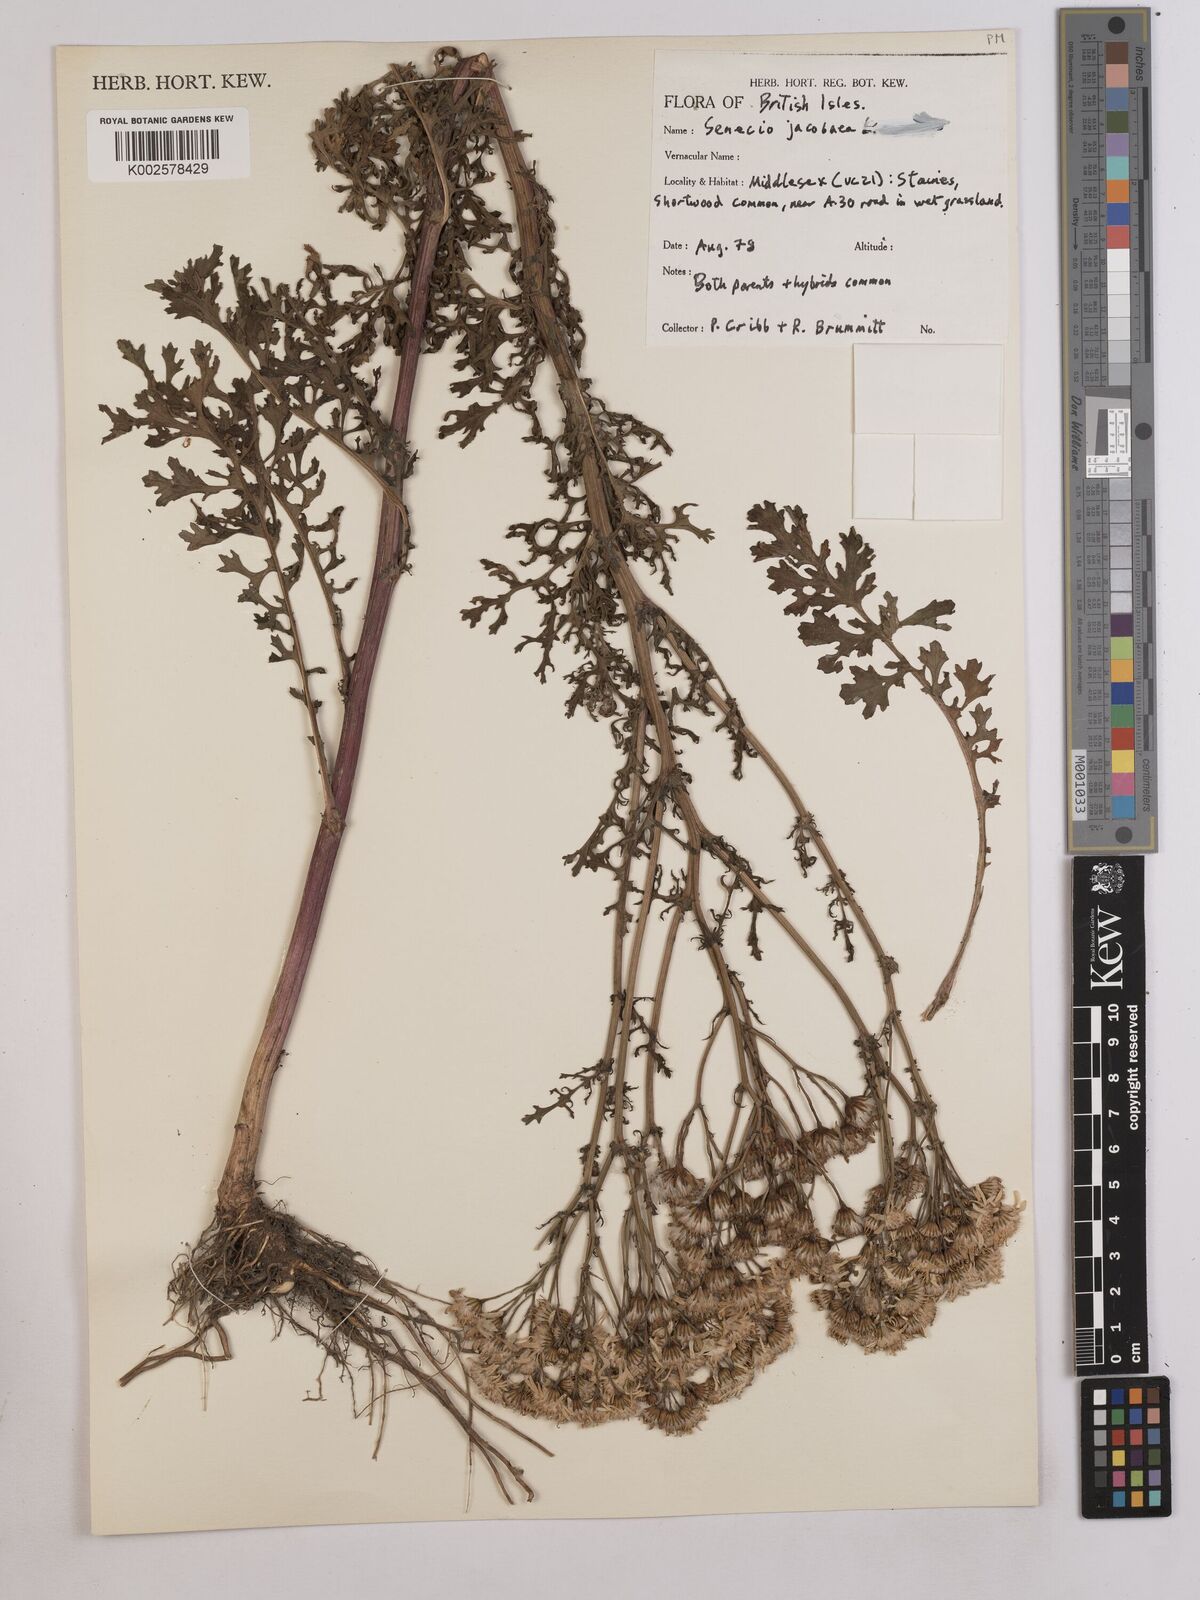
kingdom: Plantae
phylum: Tracheophyta
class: Magnoliopsida
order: Asterales
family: Asteraceae
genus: Jacobaea
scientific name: Jacobaea vulgaris
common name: Stinking willie
